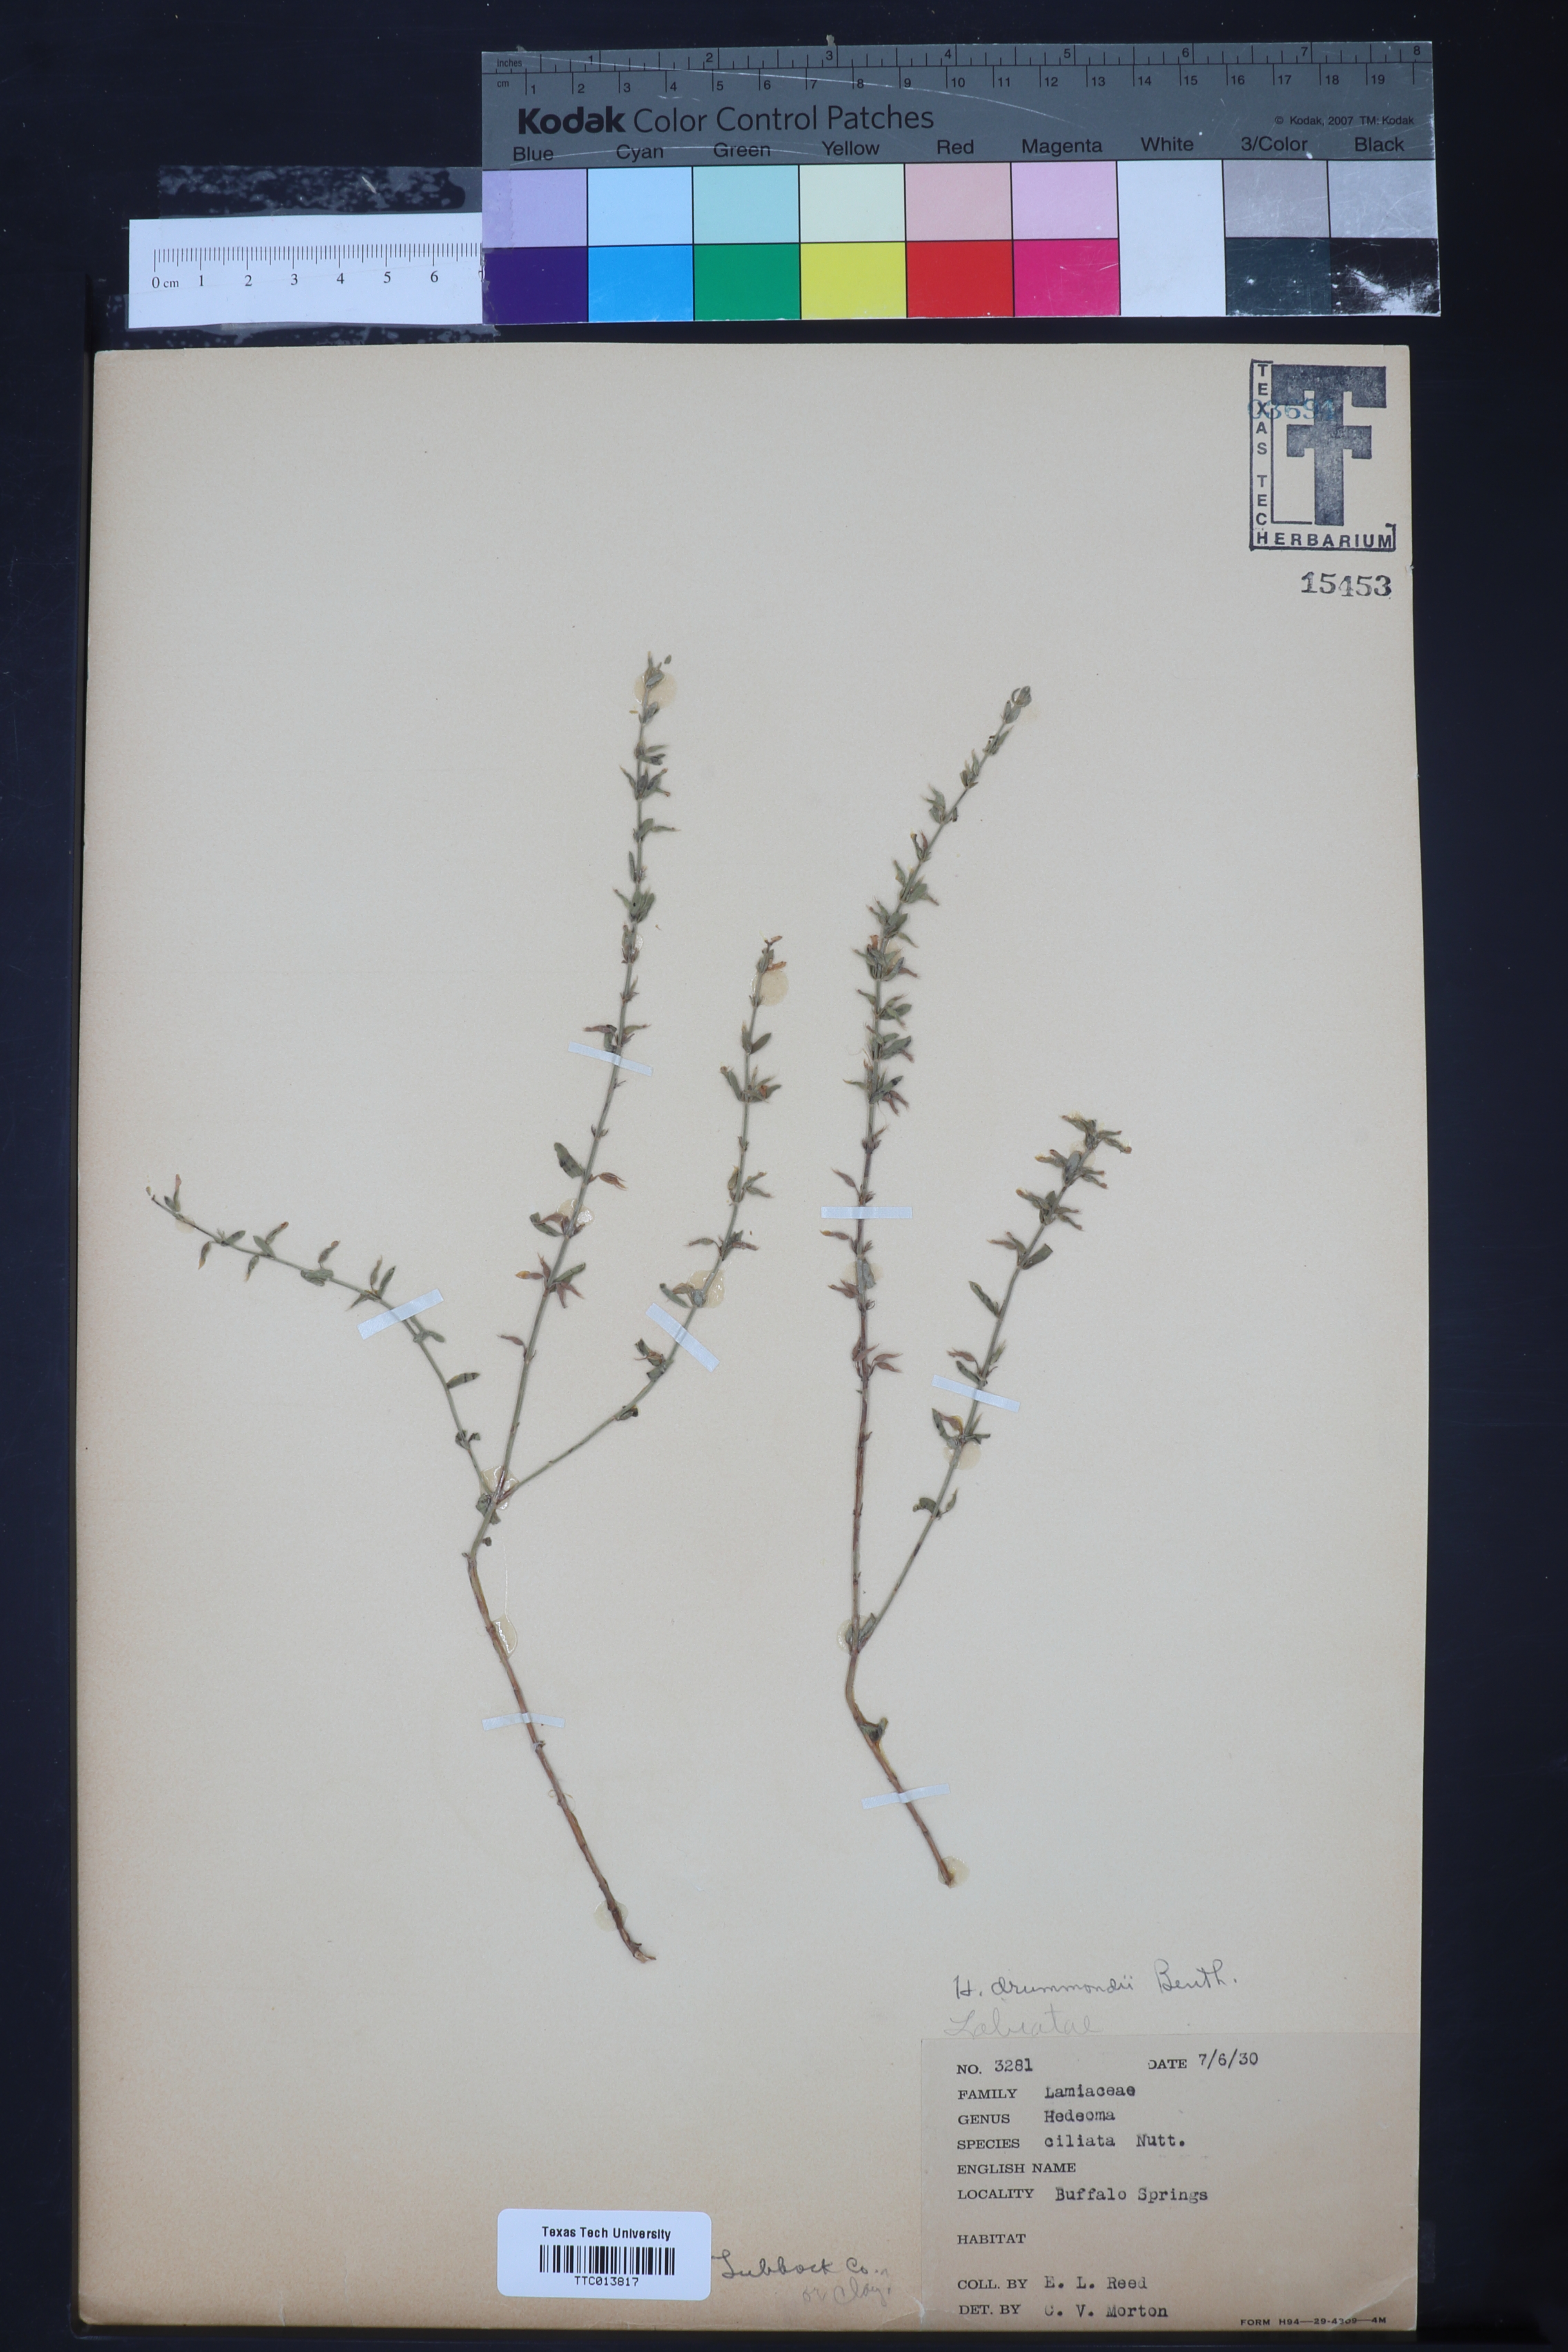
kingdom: Plantae
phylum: Tracheophyta
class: Magnoliopsida
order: Lamiales
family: Lamiaceae
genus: Hedeoma
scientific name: Hedeoma drummondii
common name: New mexico pennyroyal
